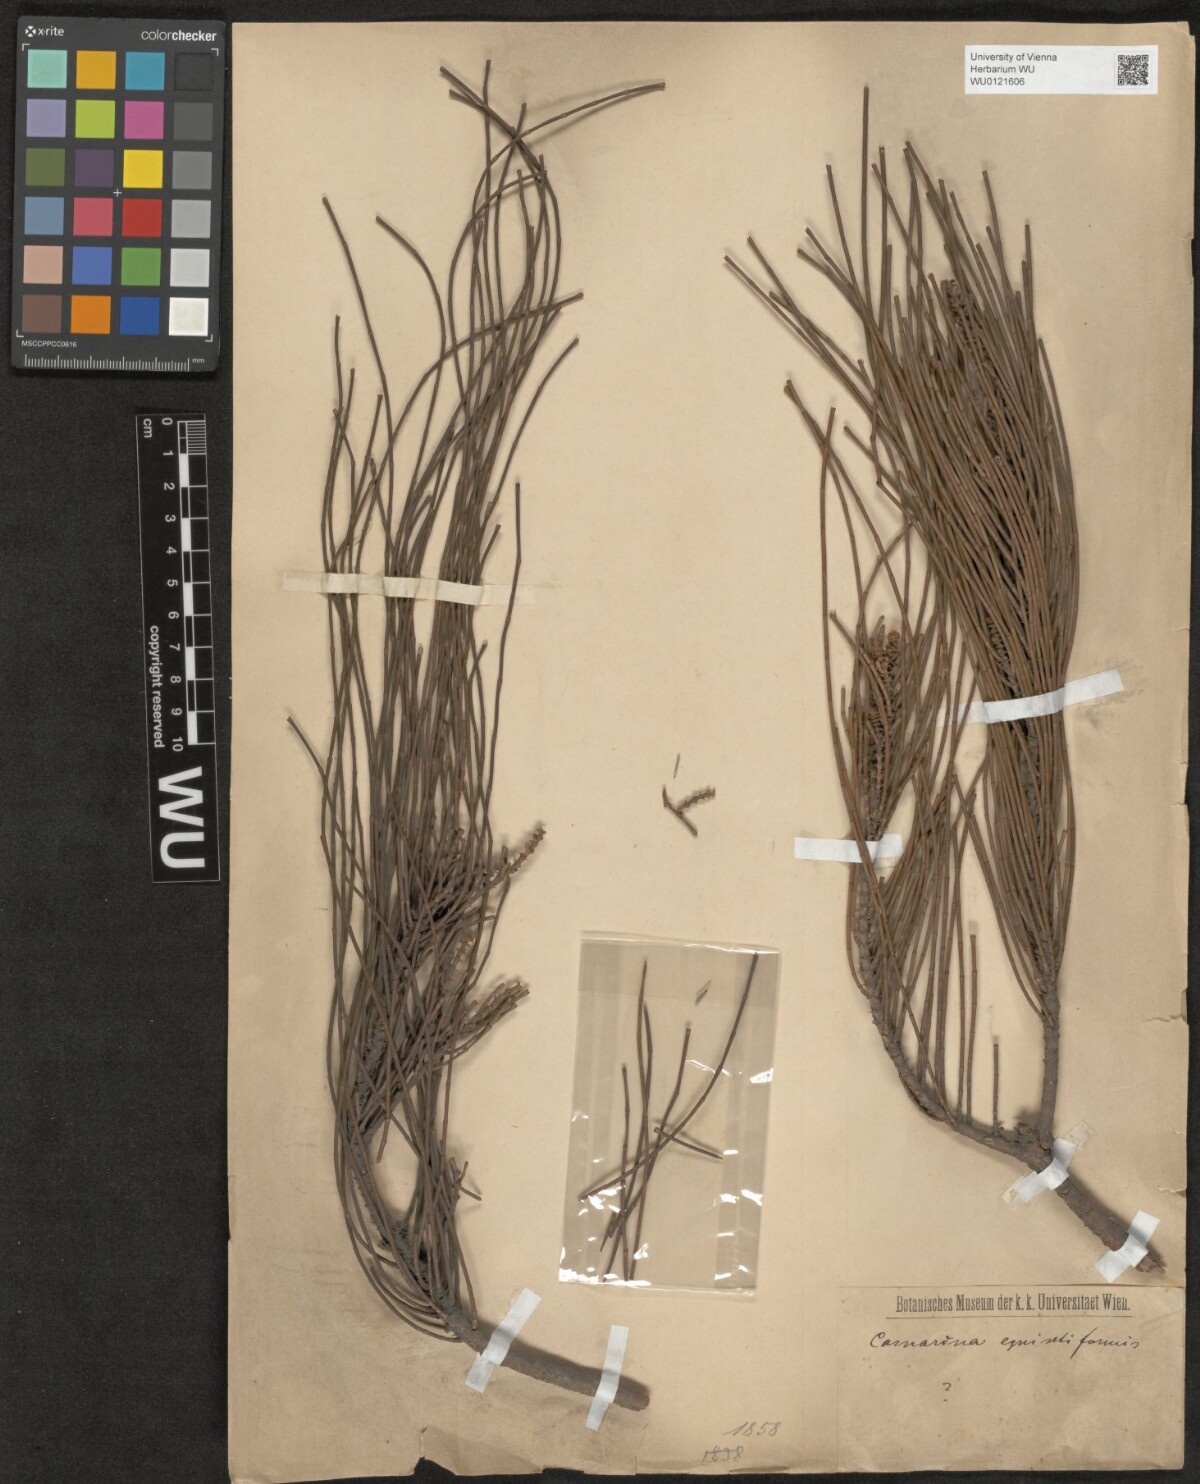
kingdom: Plantae
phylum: Tracheophyta
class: Magnoliopsida
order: Fagales
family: Casuarinaceae
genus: Casuarina
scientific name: Casuarina equisetifolia
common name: Beach sheoak
